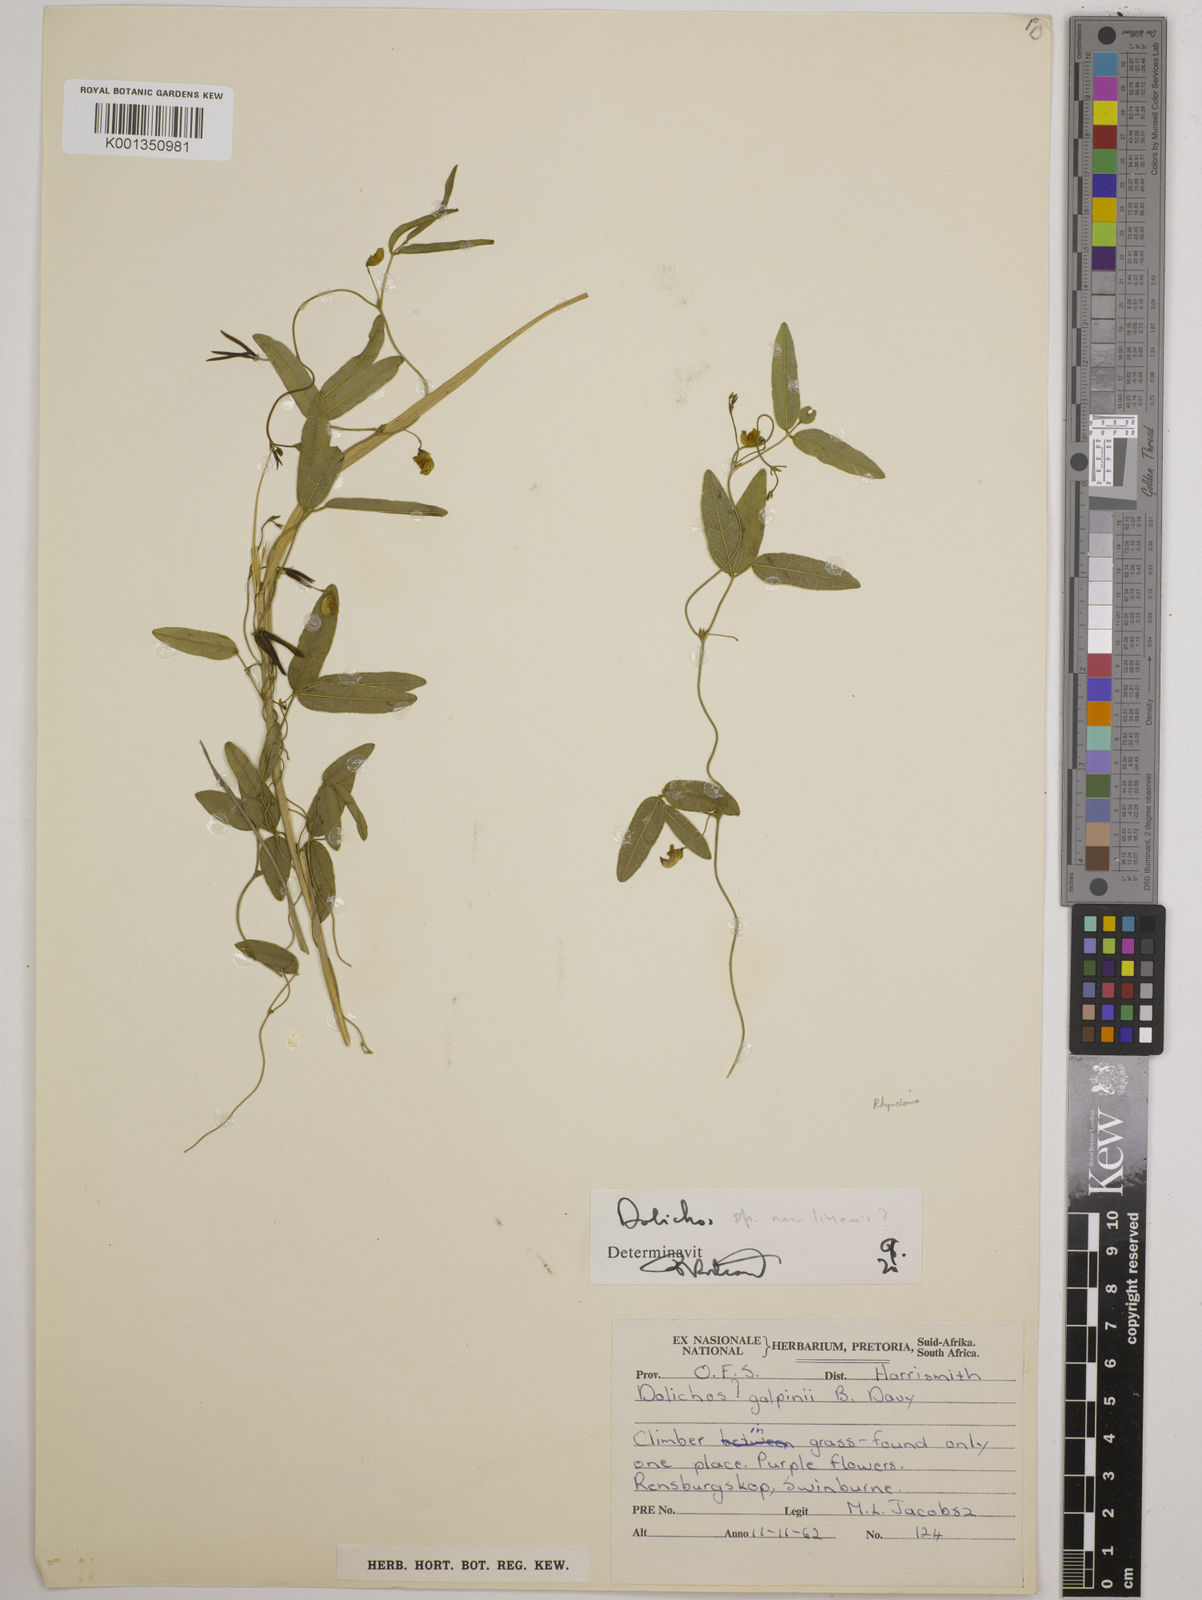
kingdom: Plantae
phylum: Tracheophyta
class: Magnoliopsida
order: Fabales
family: Fabaceae
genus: Dolichos
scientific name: Dolichos
